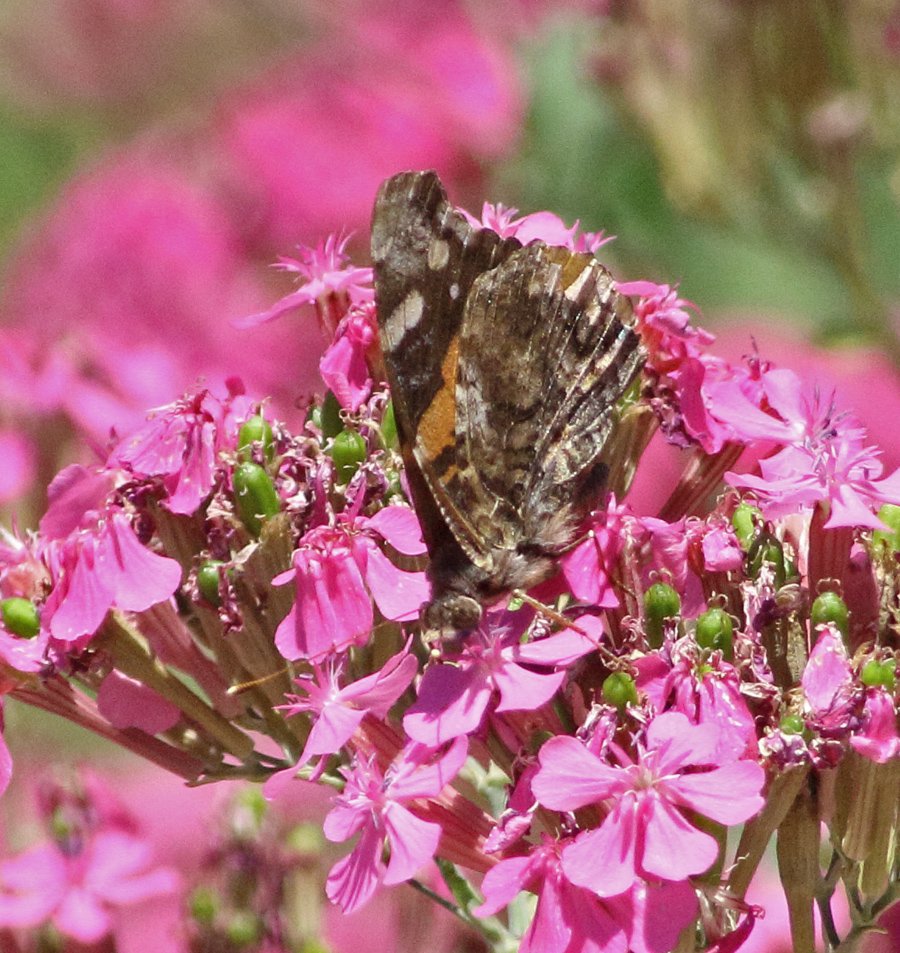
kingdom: Animalia
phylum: Arthropoda
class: Insecta
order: Lepidoptera
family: Nymphalidae
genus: Vanessa
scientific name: Vanessa atalanta
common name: Red Admiral
